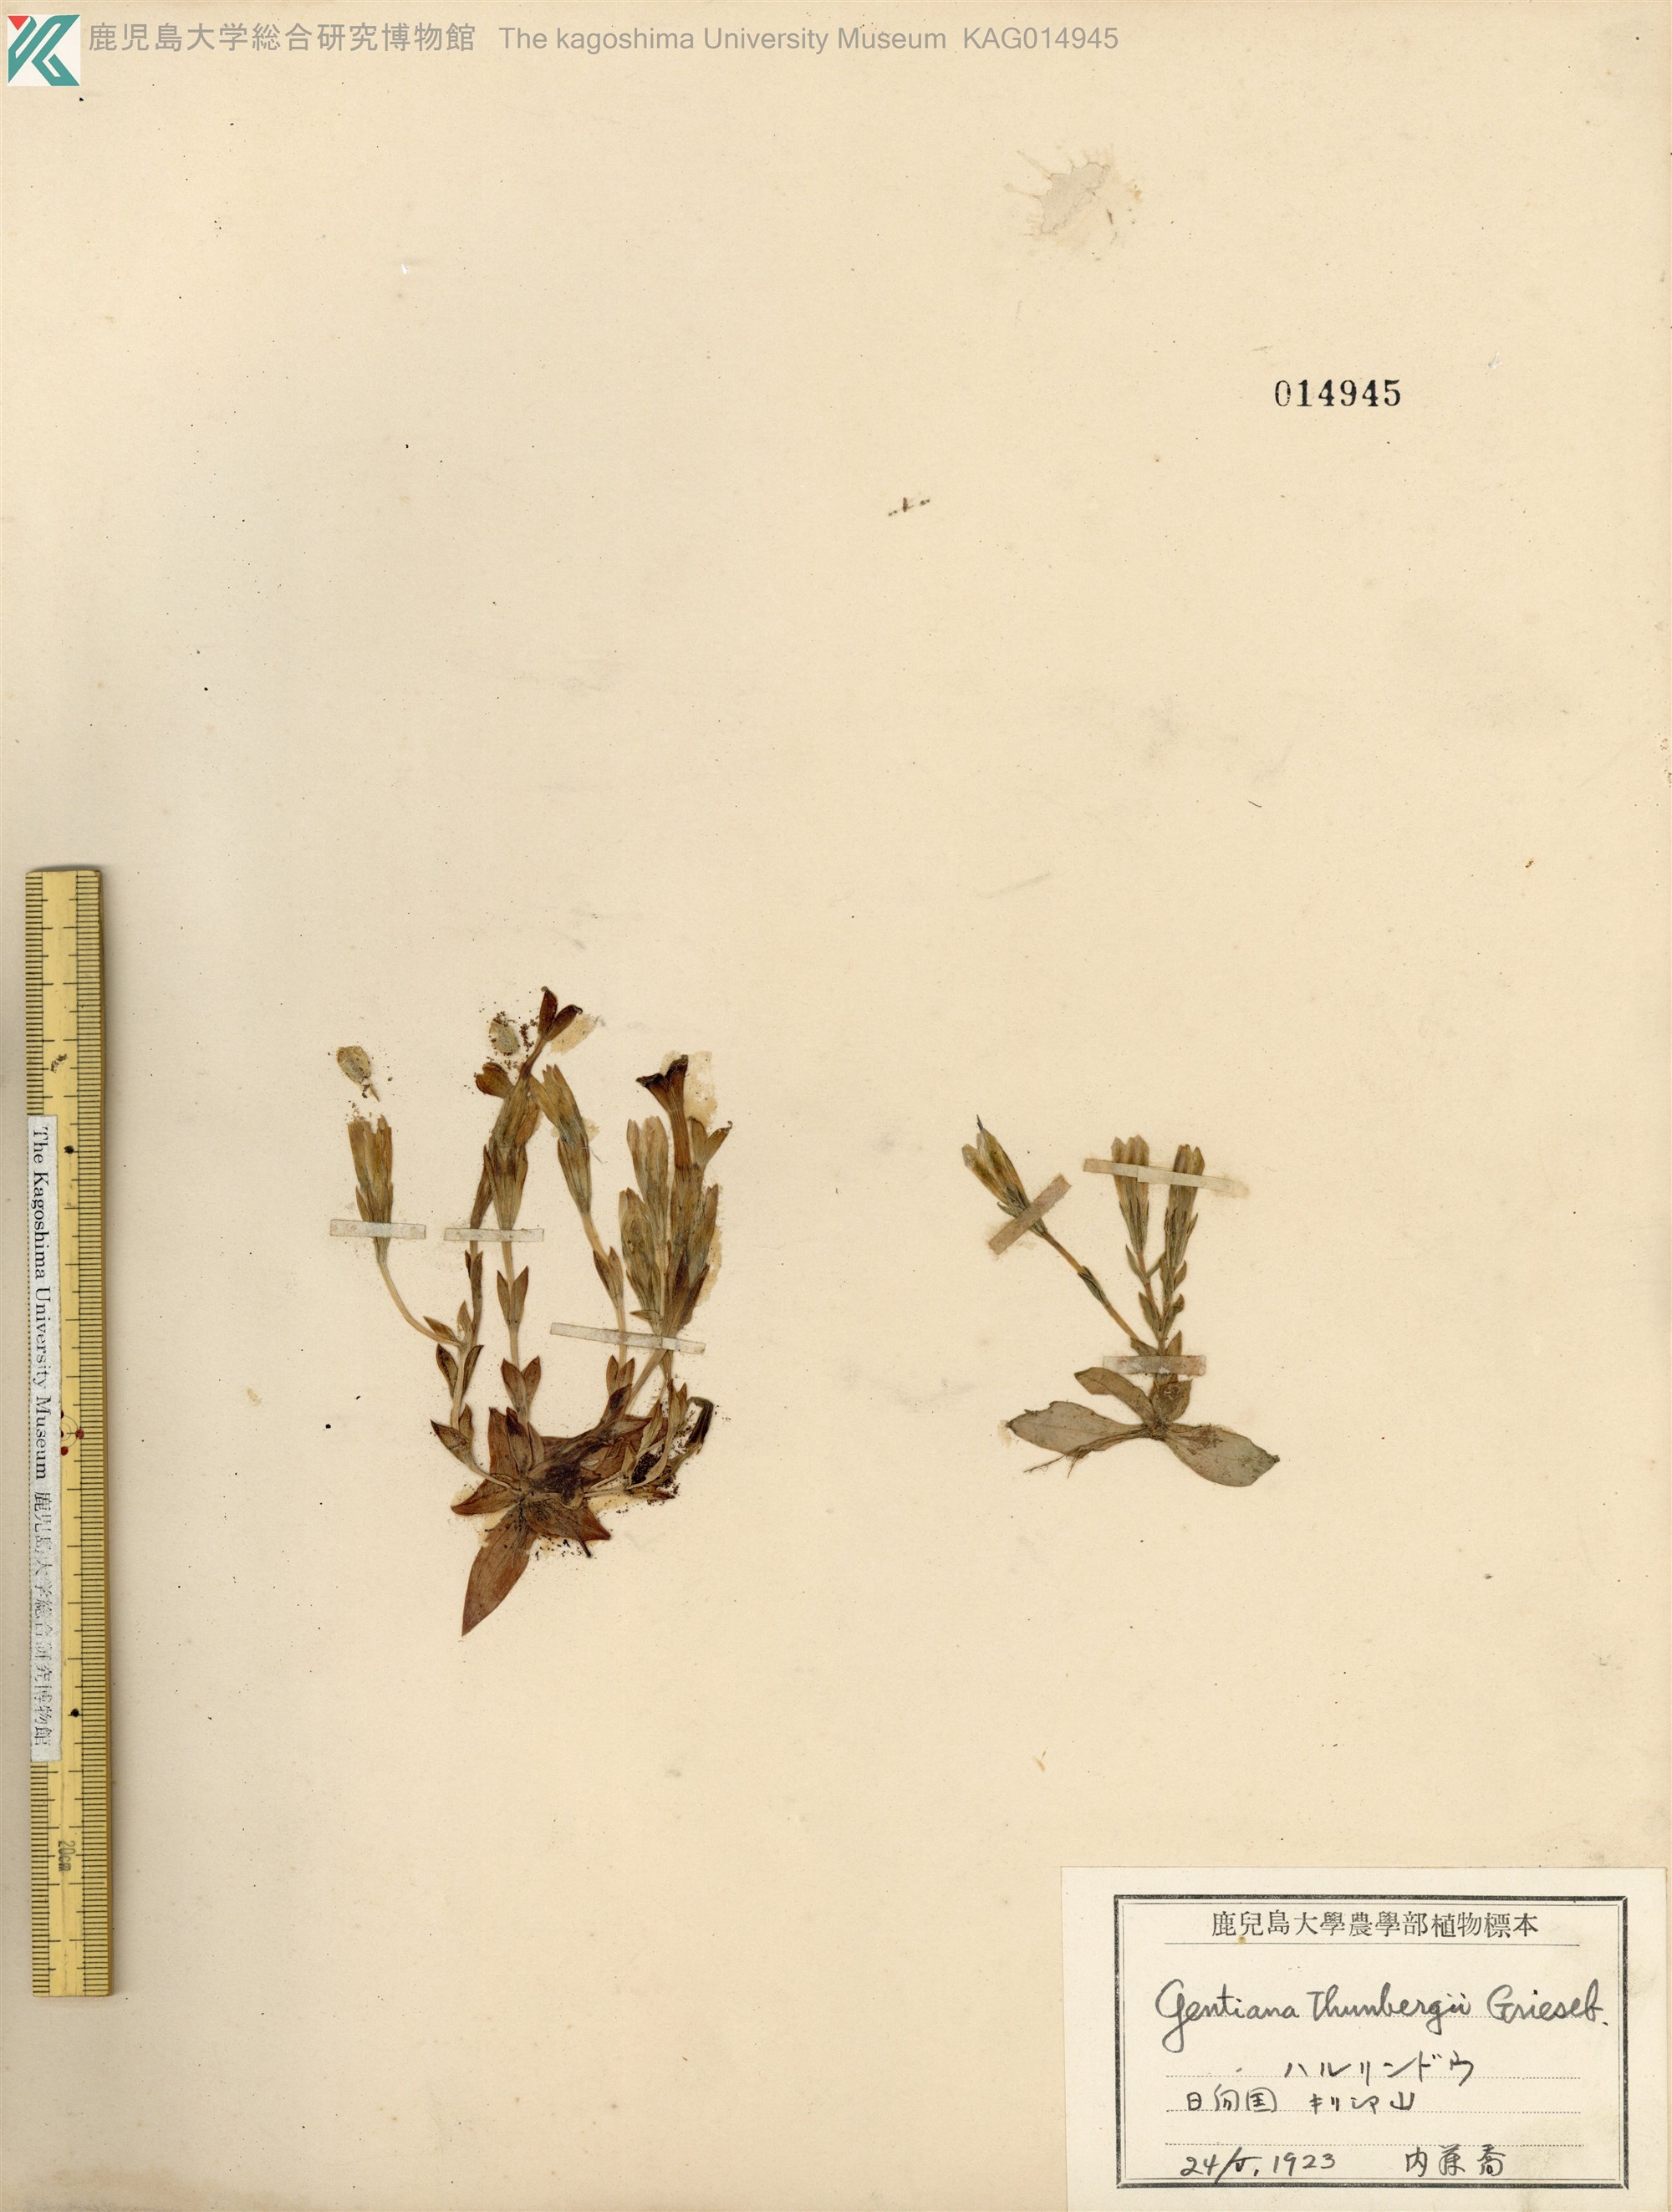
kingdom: Plantae
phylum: Tracheophyta
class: Magnoliopsida
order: Gentianales
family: Gentianaceae
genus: Gentiana
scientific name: Gentiana thunbergii
